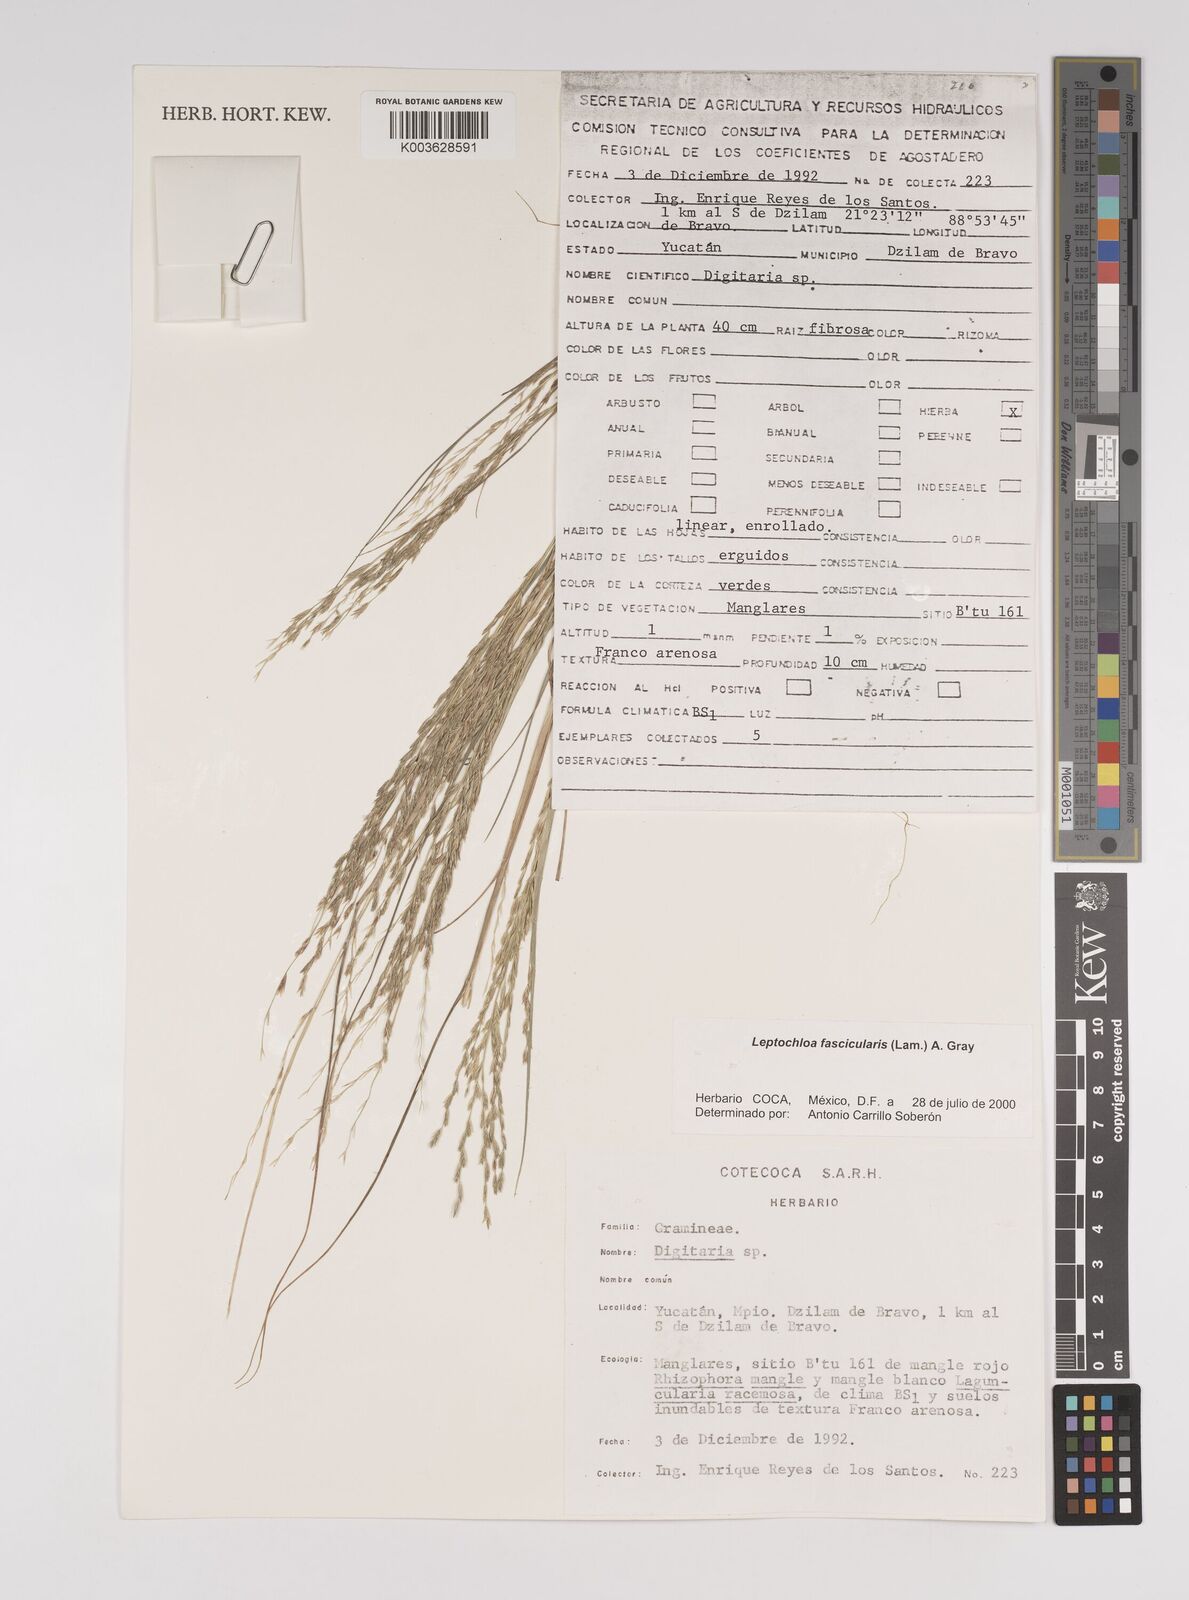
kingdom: Plantae
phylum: Tracheophyta
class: Liliopsida
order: Poales
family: Poaceae
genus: Diplachne
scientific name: Diplachne fusca
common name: Brown beetle grass
